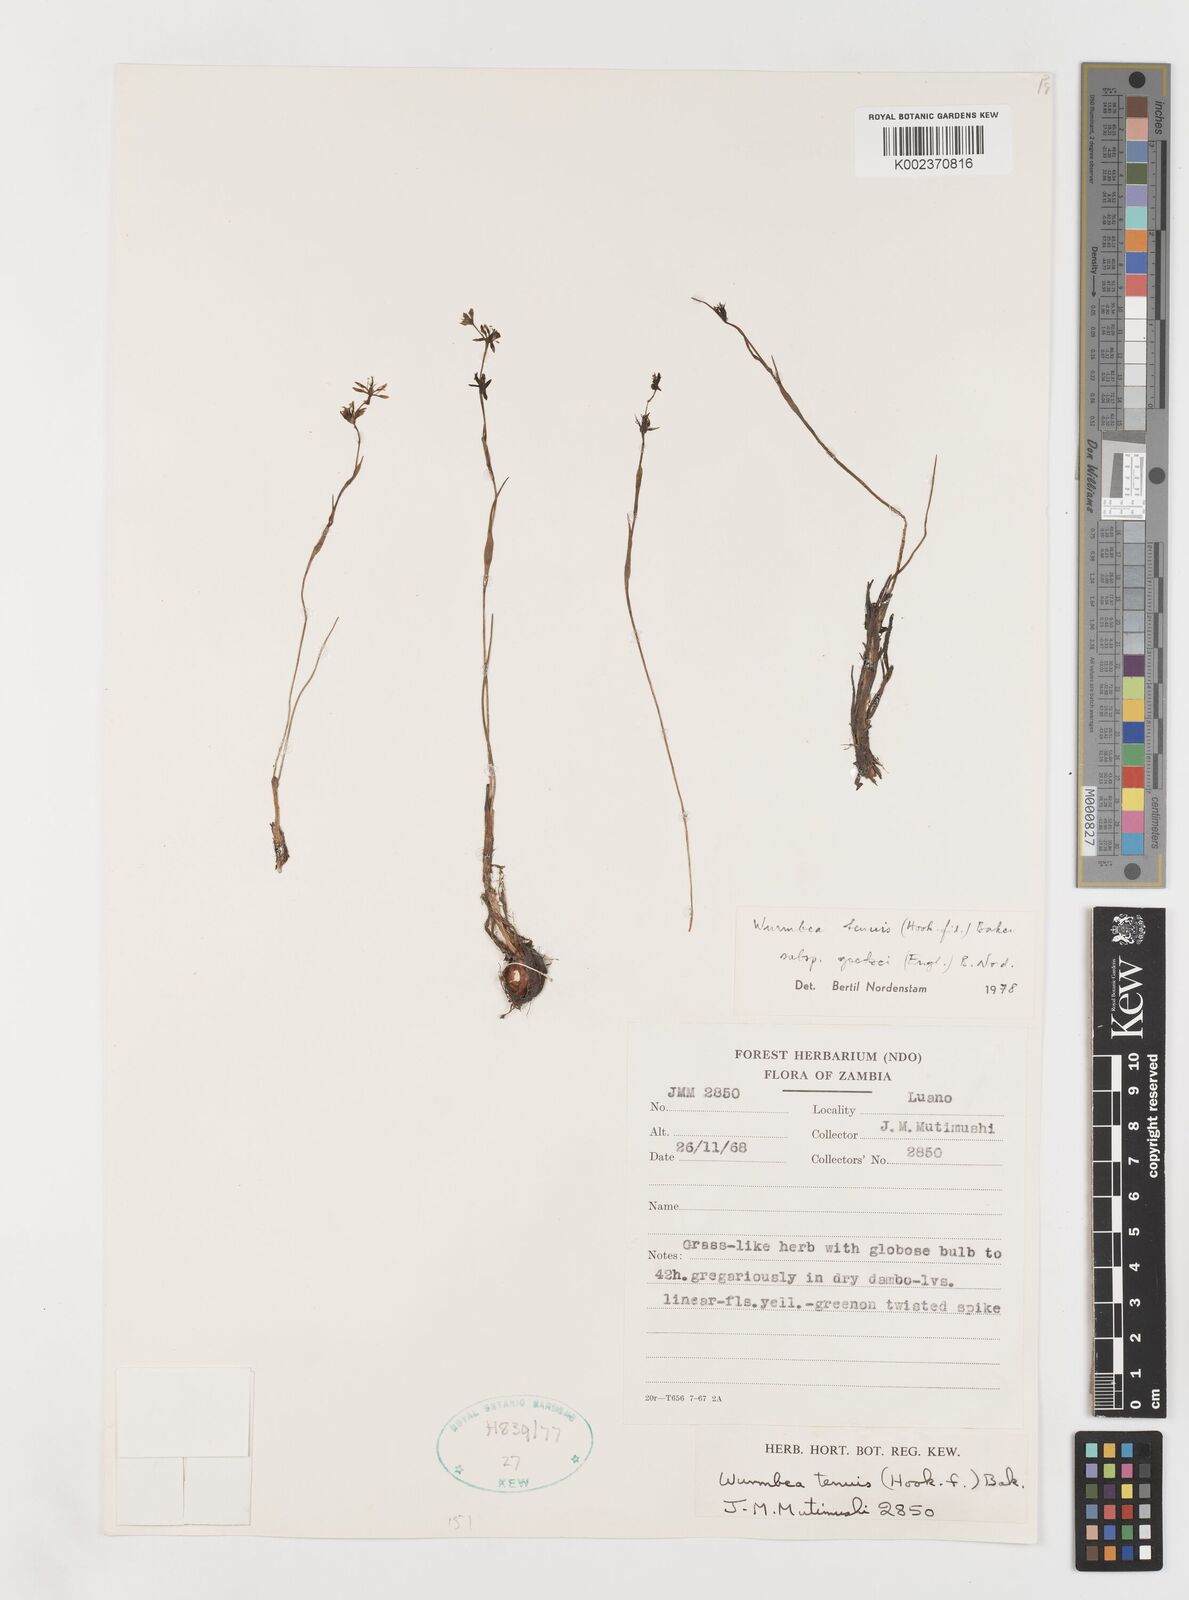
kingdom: Plantae
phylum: Tracheophyta
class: Liliopsida
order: Liliales
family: Colchicaceae
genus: Wurmbea
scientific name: Wurmbea tenuis
